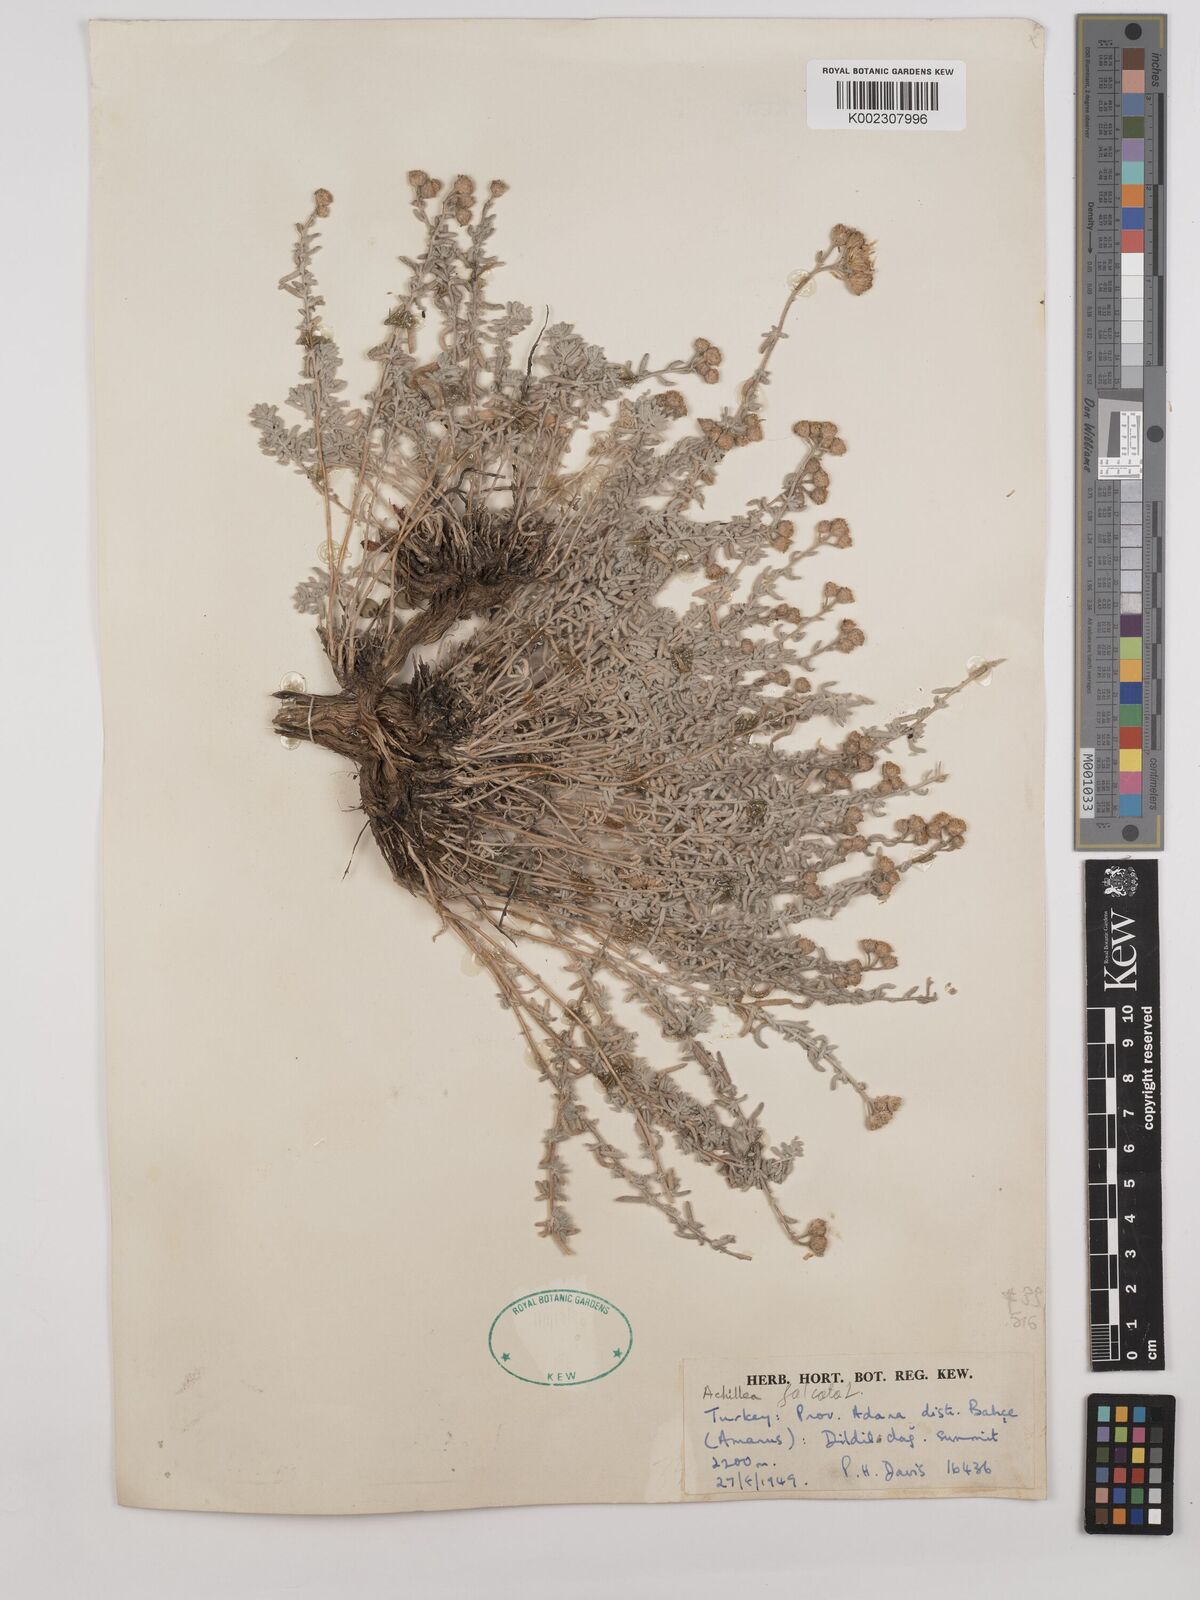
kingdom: Plantae
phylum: Tracheophyta
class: Magnoliopsida
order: Asterales
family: Asteraceae
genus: Achillea
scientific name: Achillea chamaemelifolia
